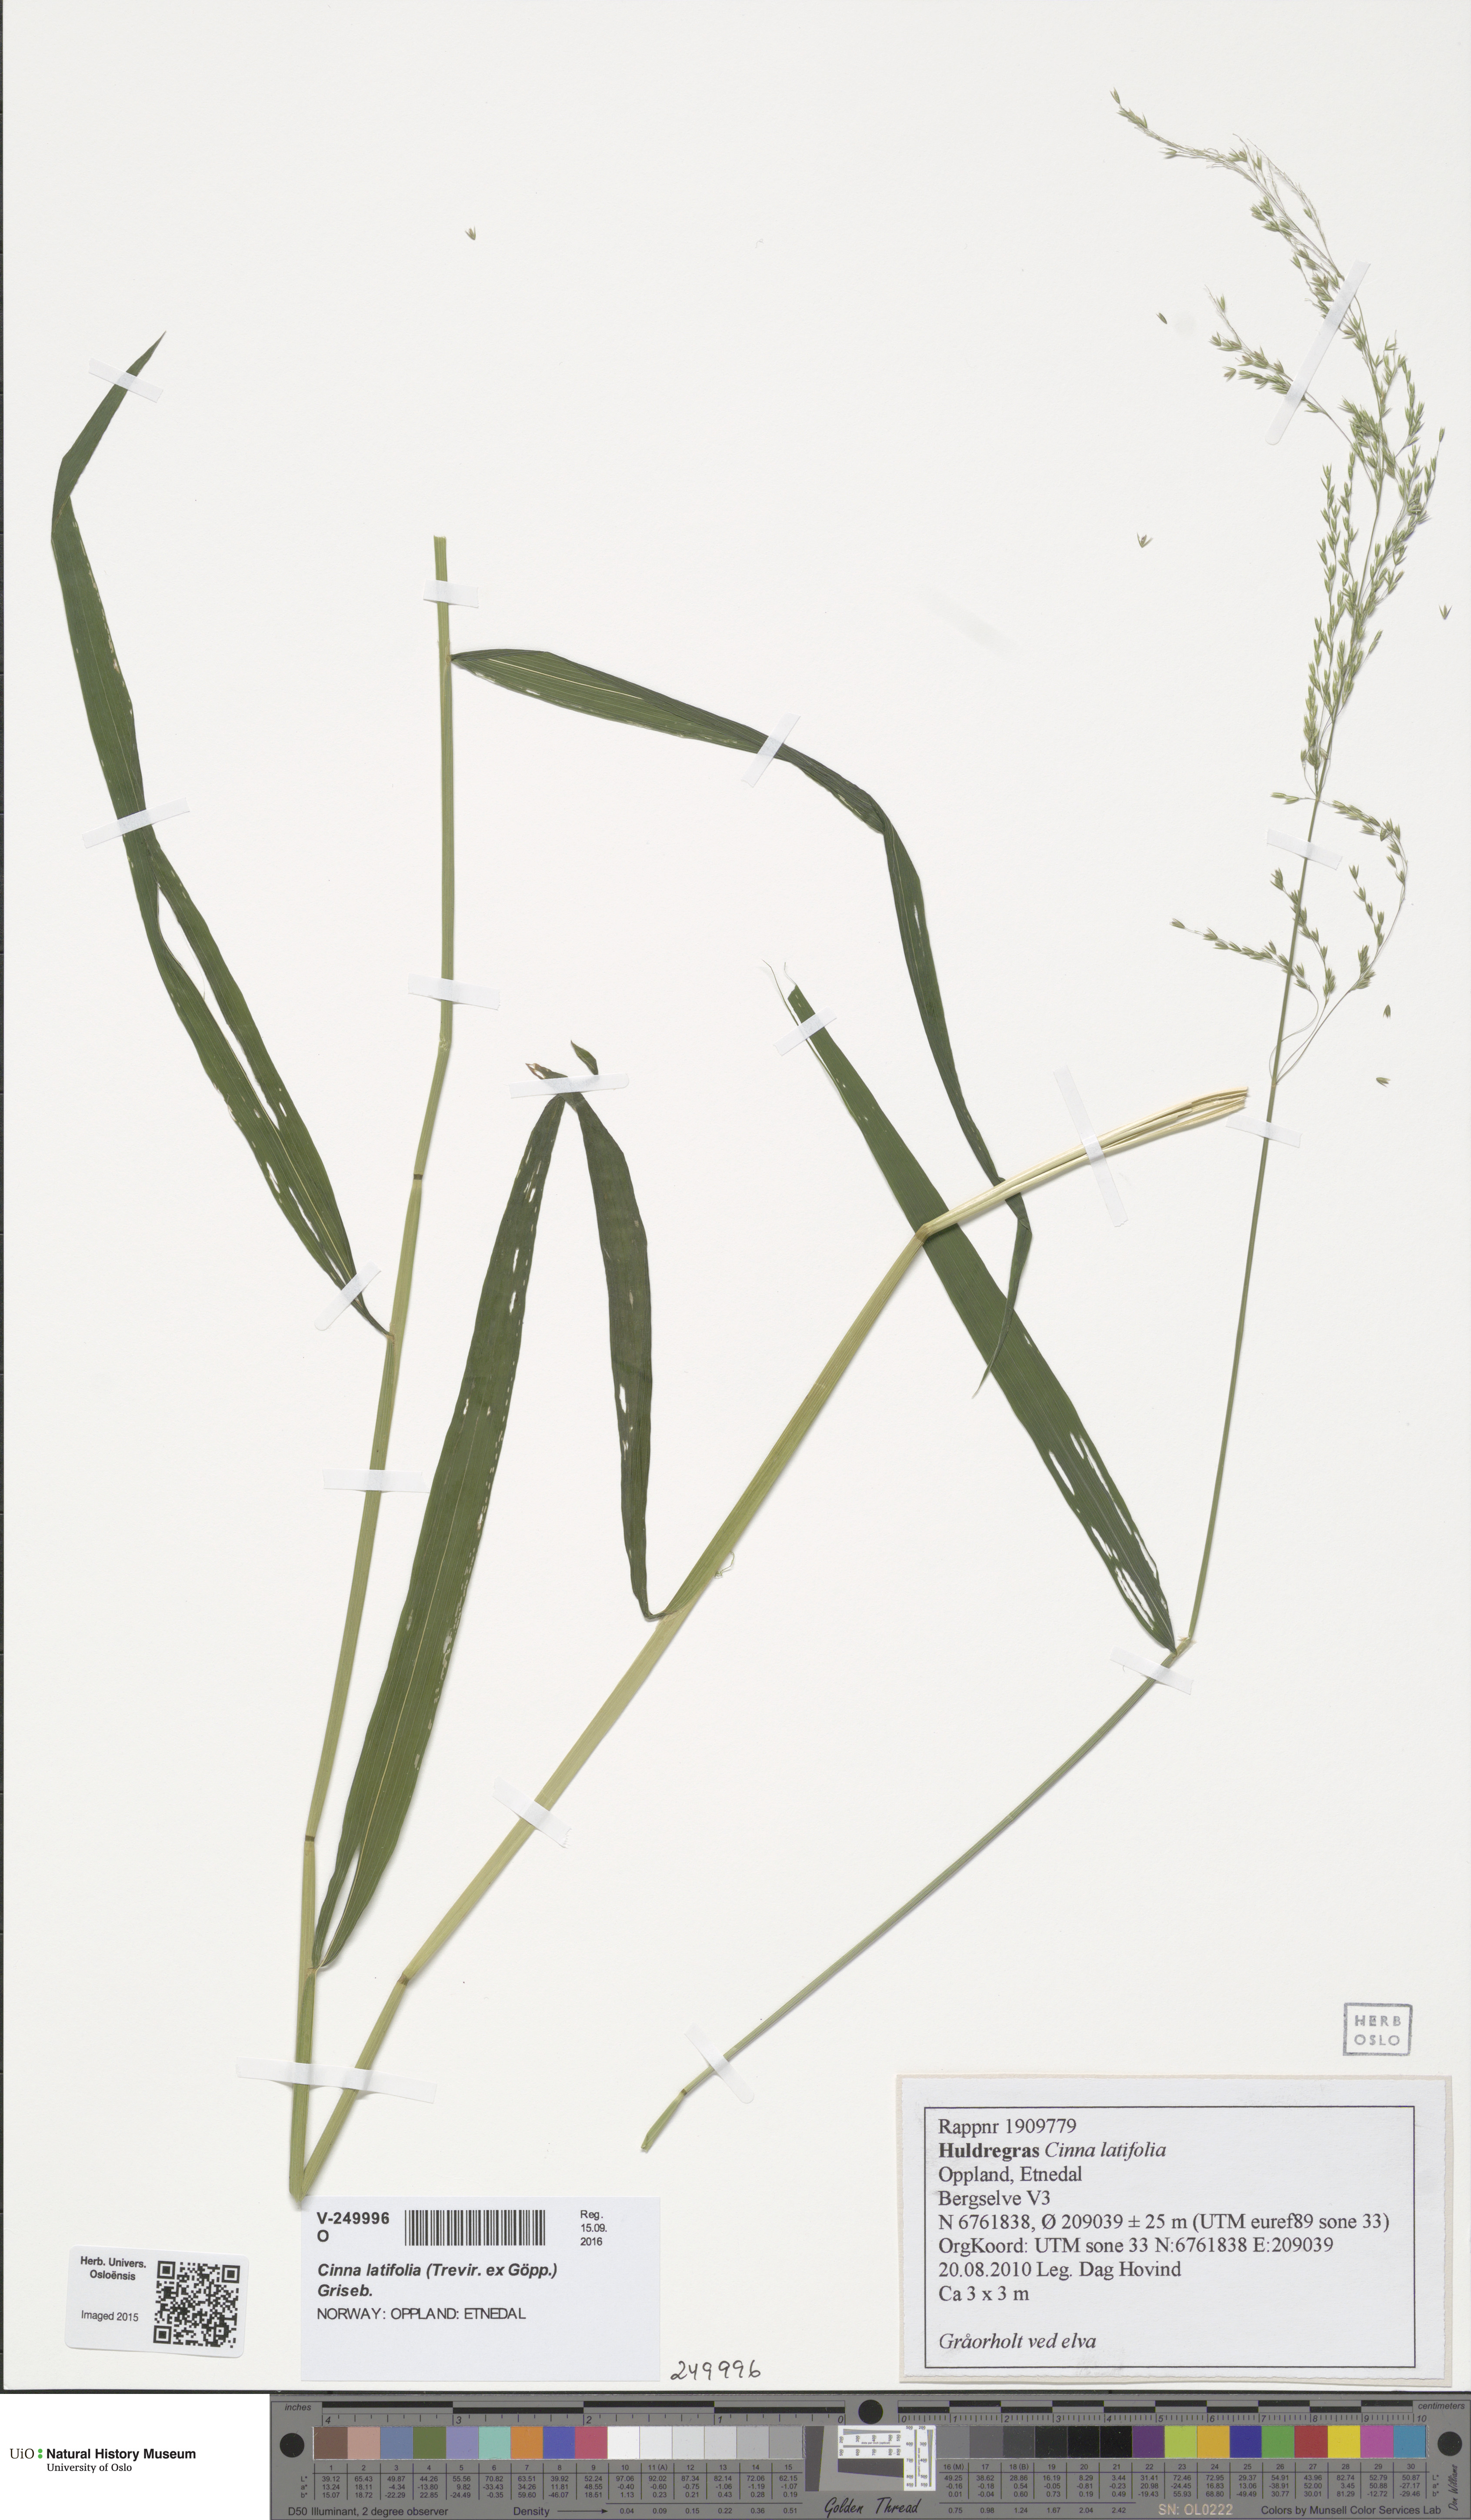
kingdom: Plantae
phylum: Tracheophyta
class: Liliopsida
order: Poales
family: Poaceae
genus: Cinna
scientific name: Cinna latifolia
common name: Drooping woodreed
